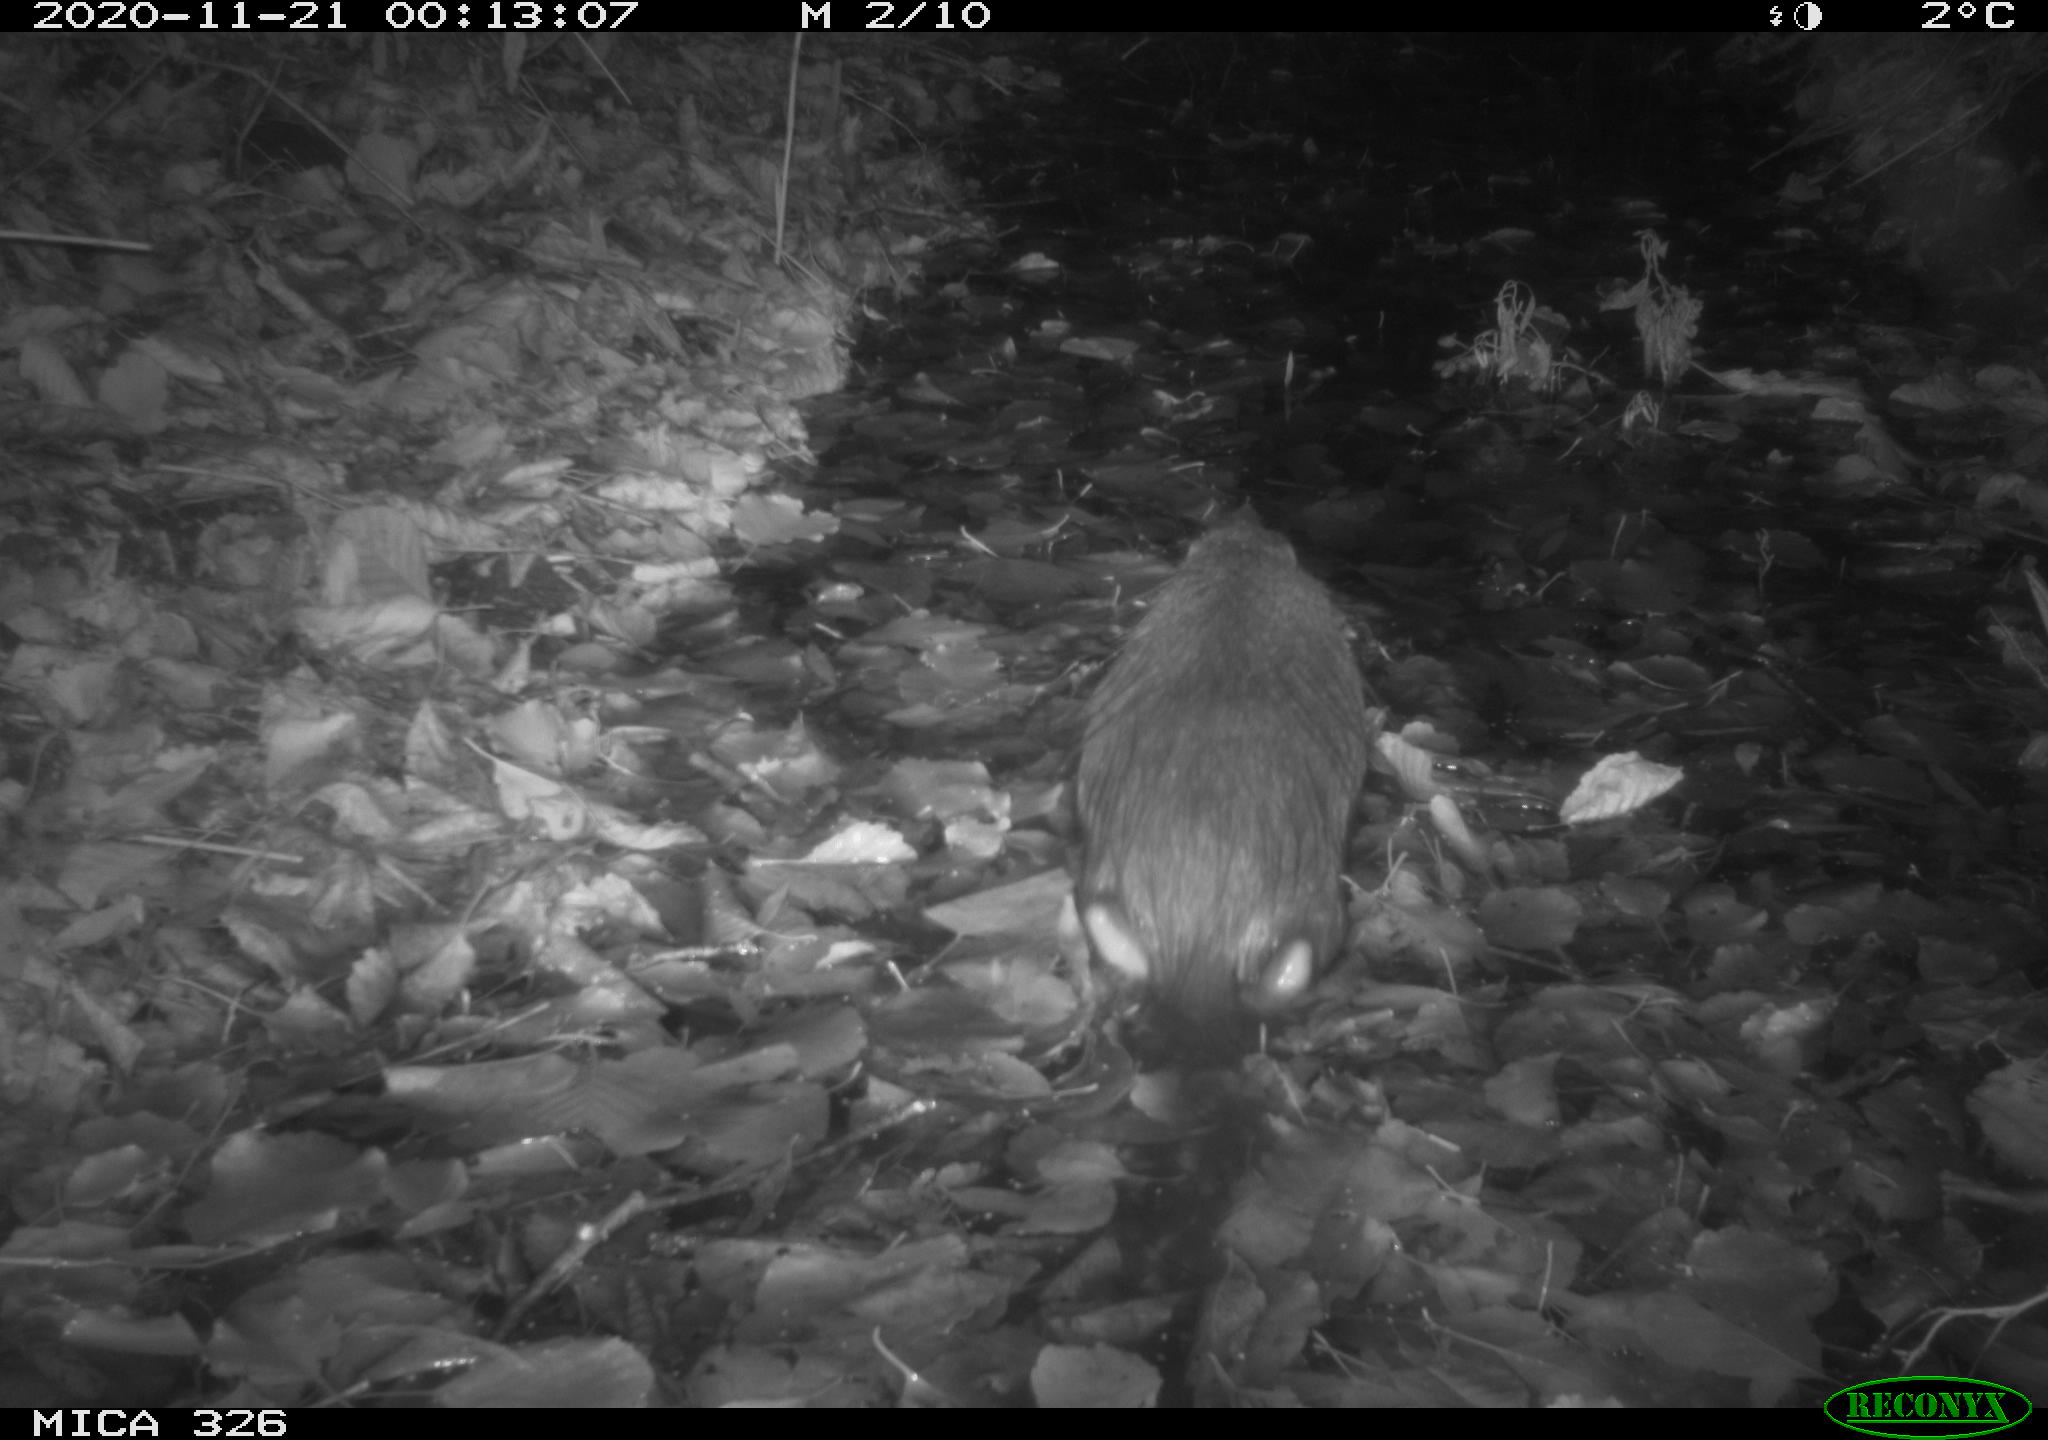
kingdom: Animalia
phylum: Chordata
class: Mammalia
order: Rodentia
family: Myocastoridae
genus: Myocastor
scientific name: Myocastor coypus
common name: Coypu
